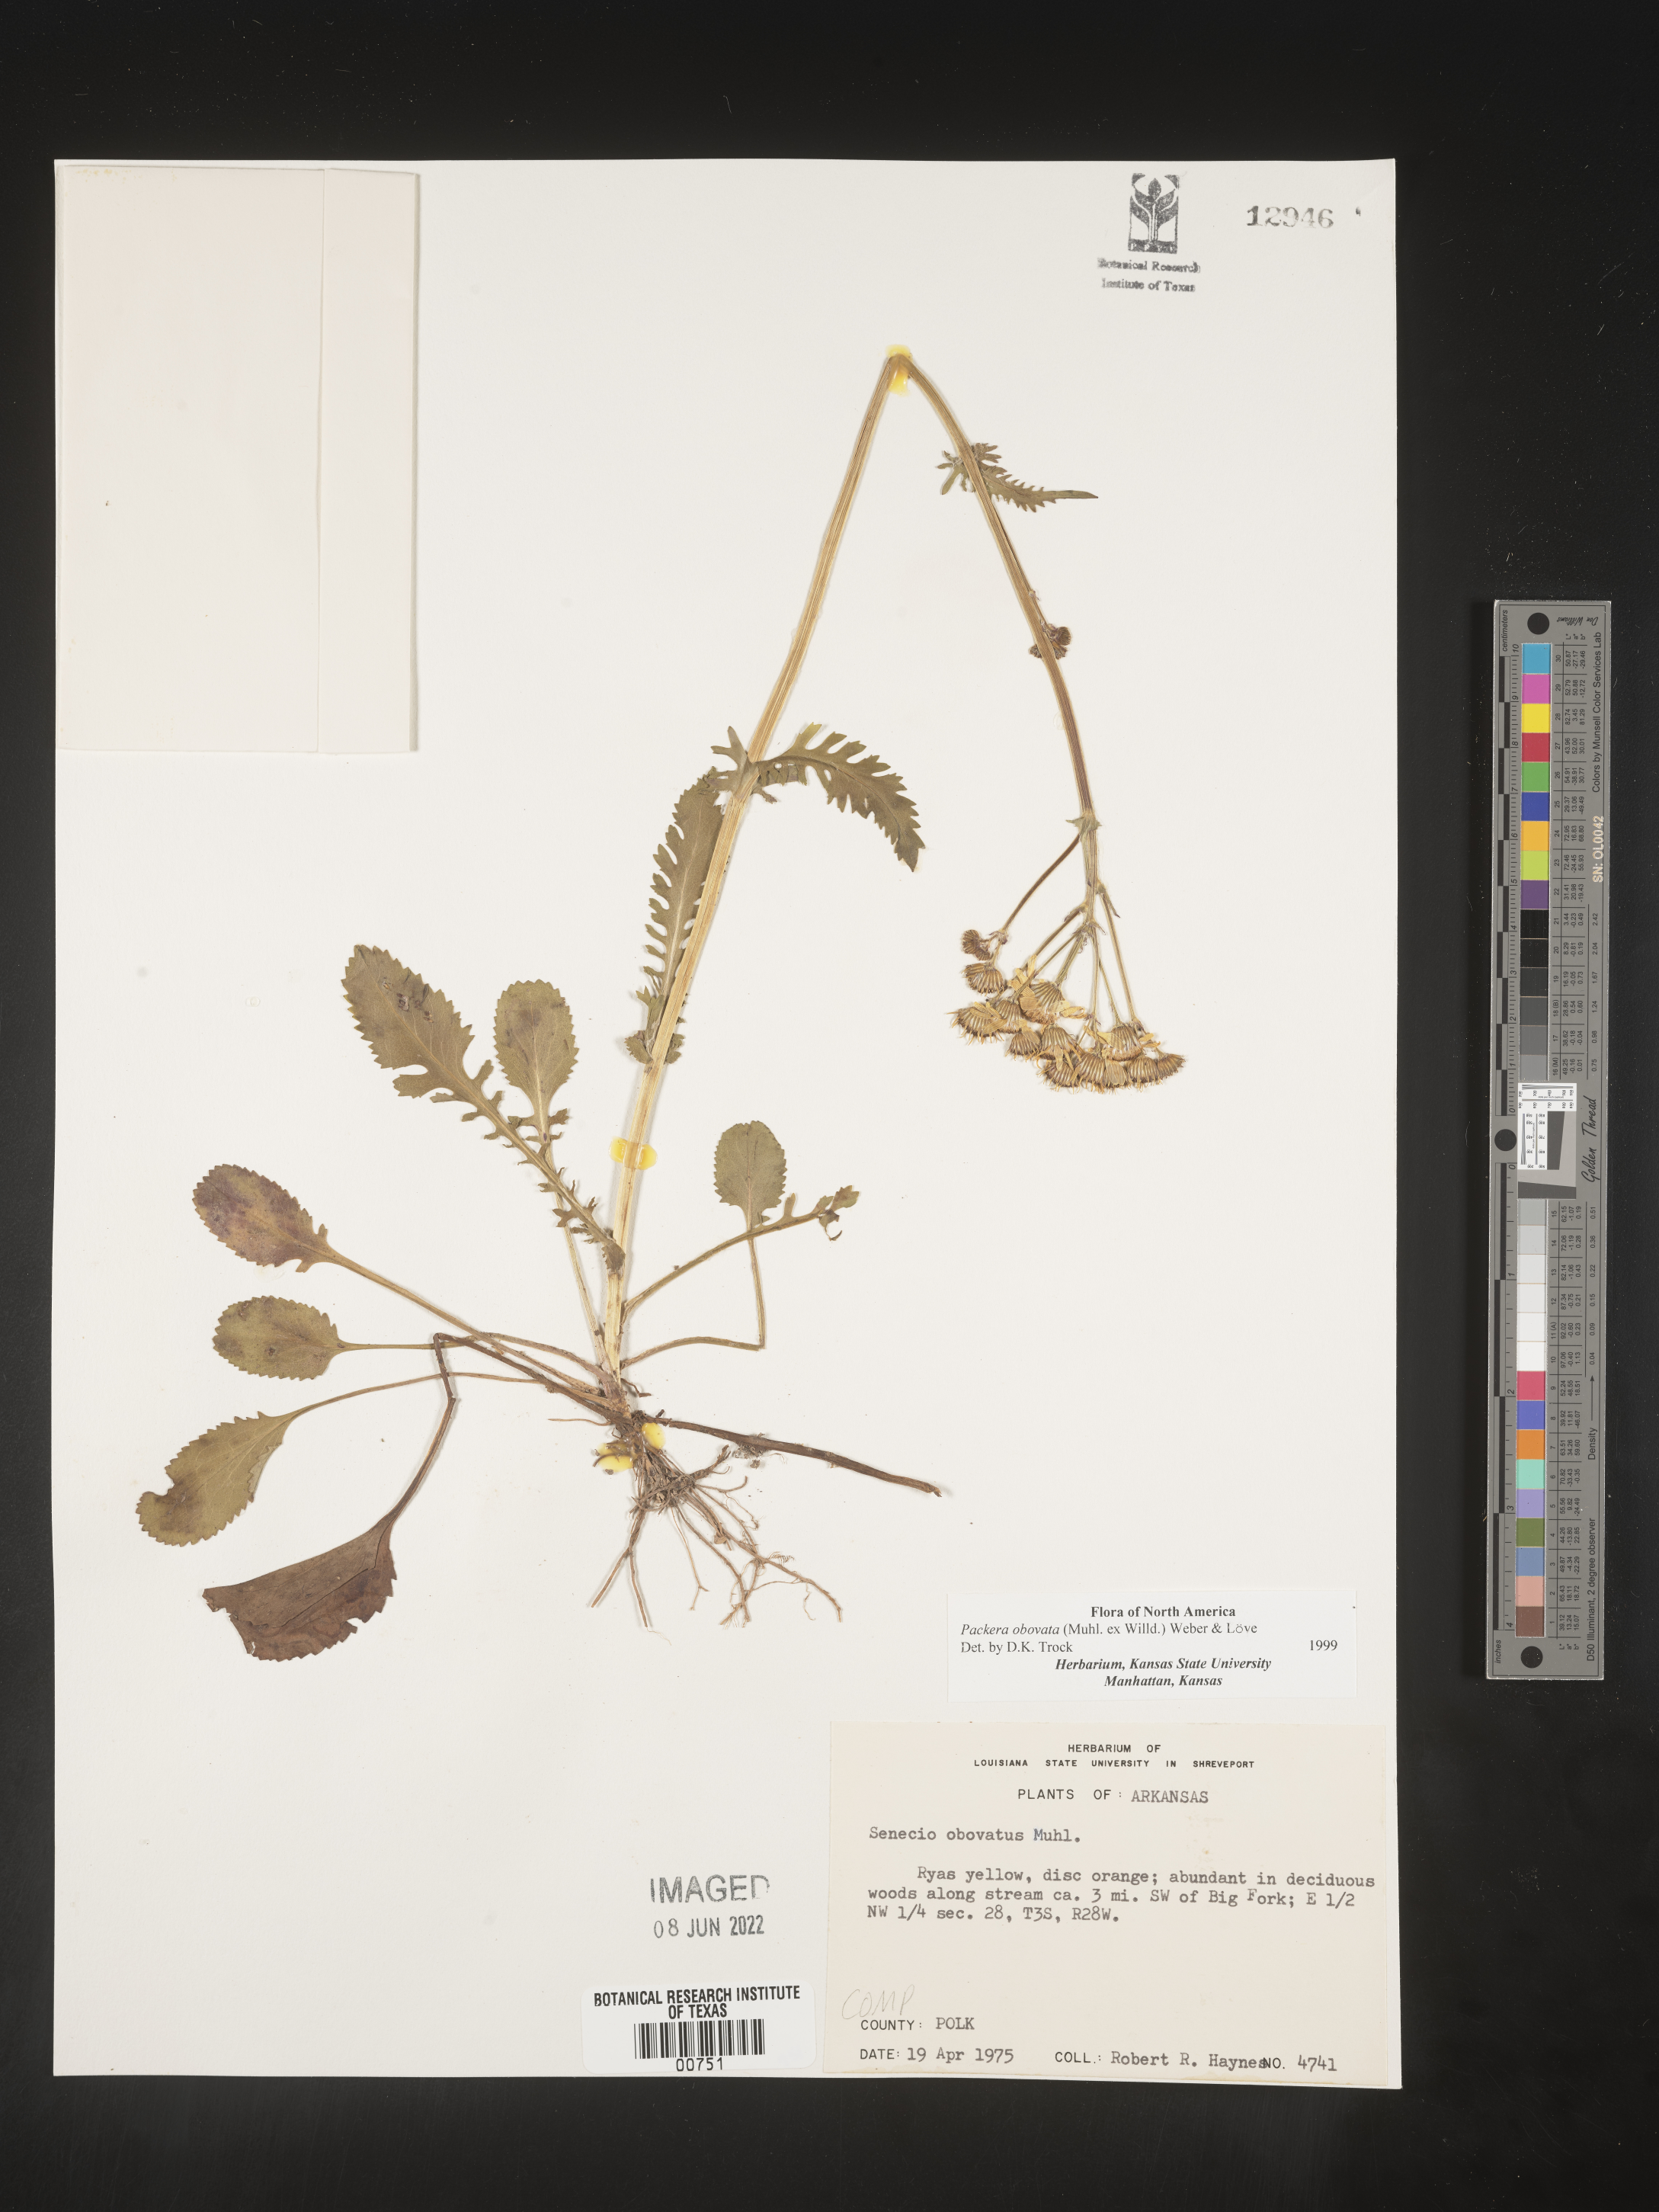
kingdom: Plantae
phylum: Tracheophyta
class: Magnoliopsida
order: Asterales
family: Asteraceae
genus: Packera
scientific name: Packera obovata
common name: Round-leaf ragwort
